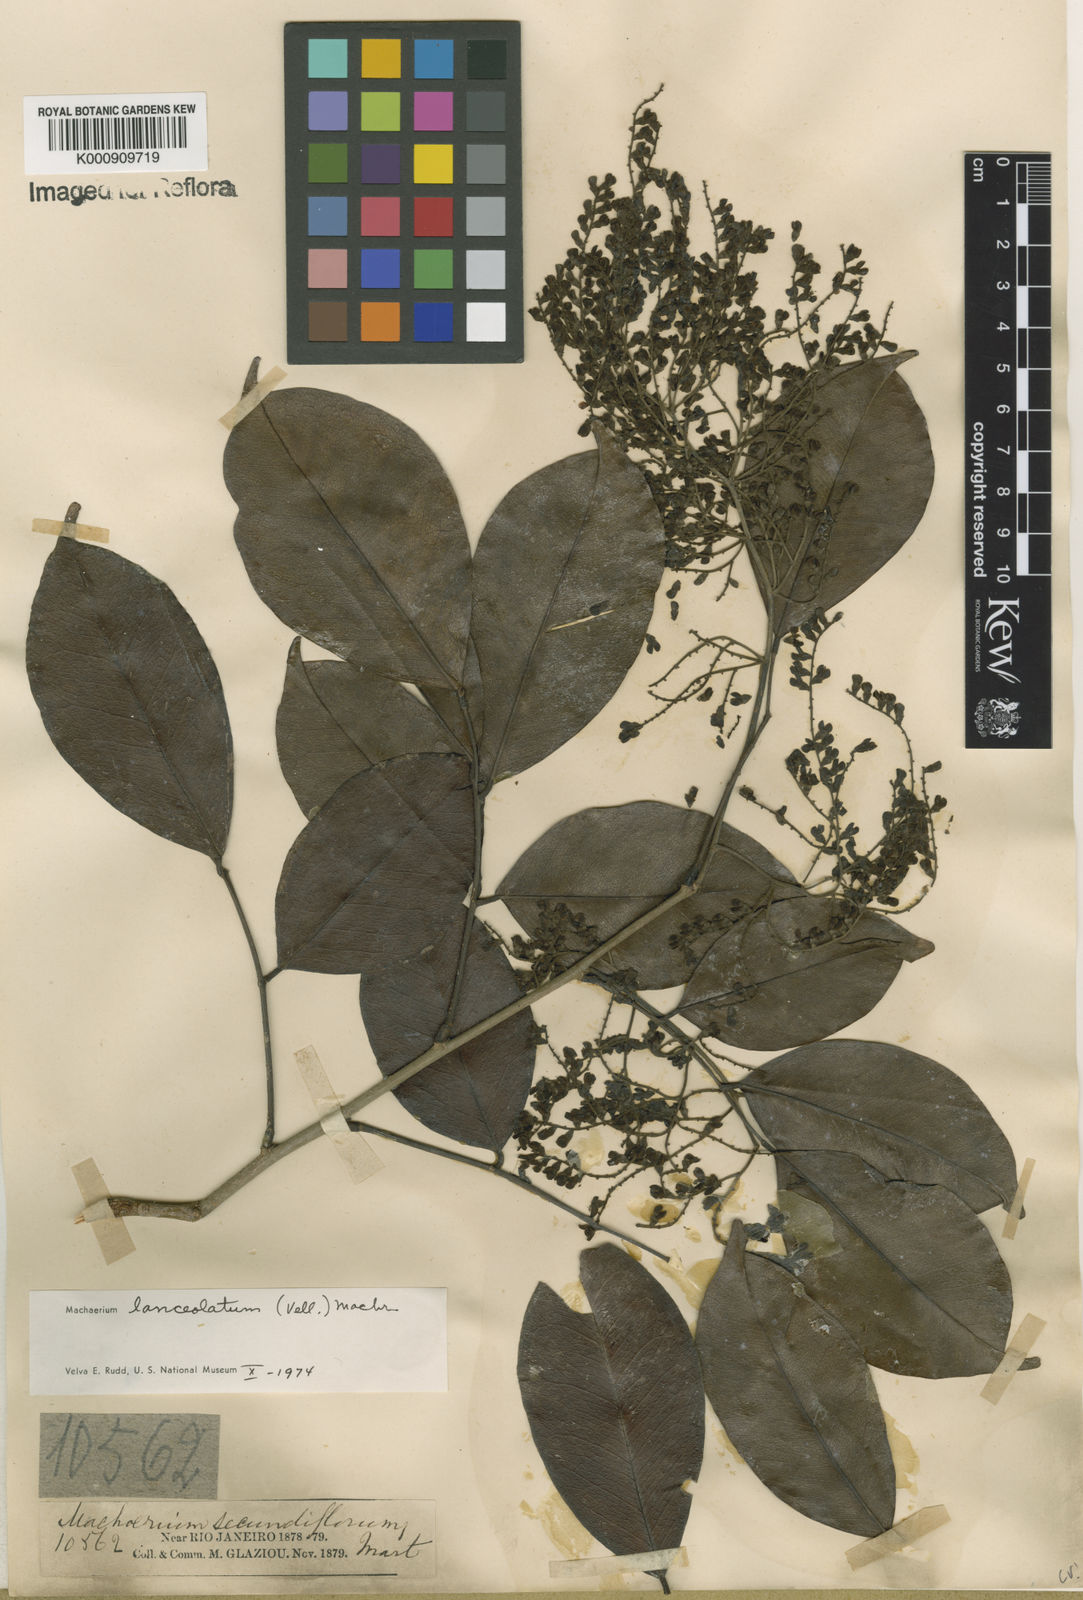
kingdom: Plantae
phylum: Tracheophyta
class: Magnoliopsida
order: Fabales
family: Fabaceae
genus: Machaerium
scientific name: Machaerium lanceolatum
